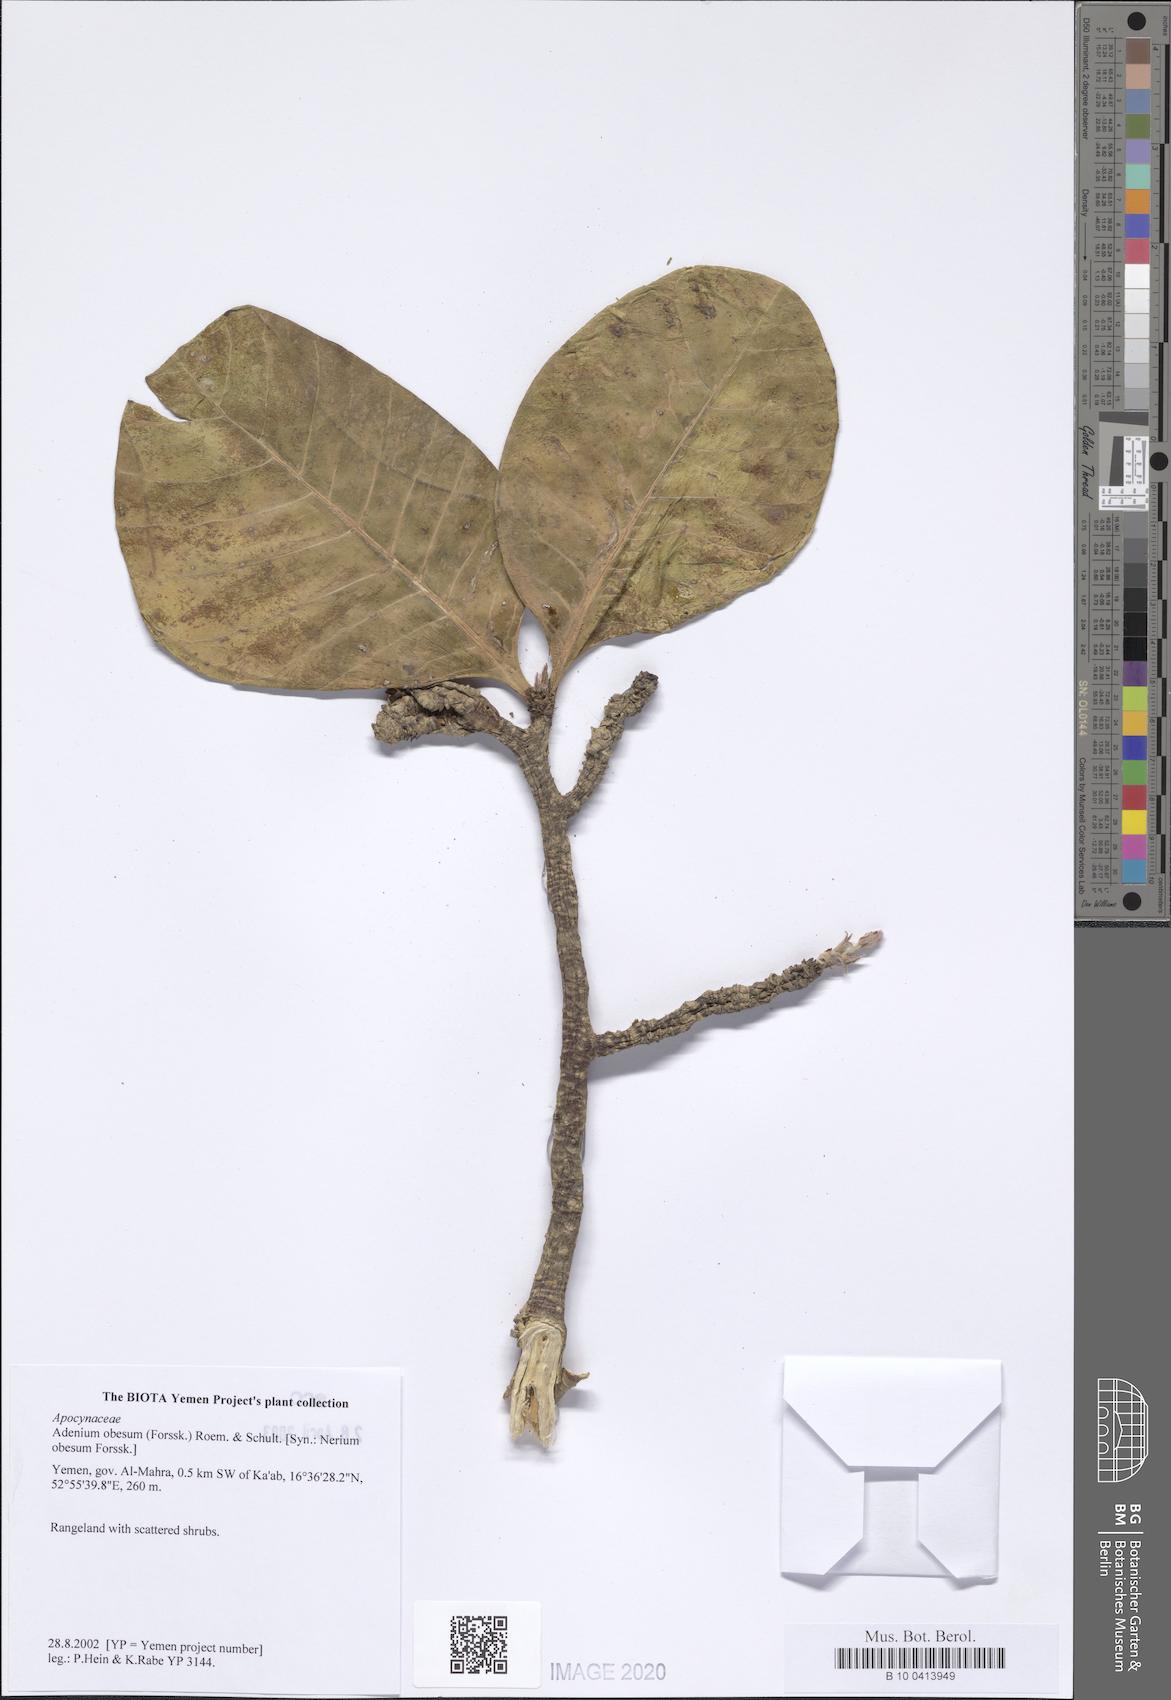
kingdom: Plantae
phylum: Tracheophyta
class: Magnoliopsida
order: Gentianales
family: Apocynaceae
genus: Adenium
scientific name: Adenium obesum
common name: Desert-rose
